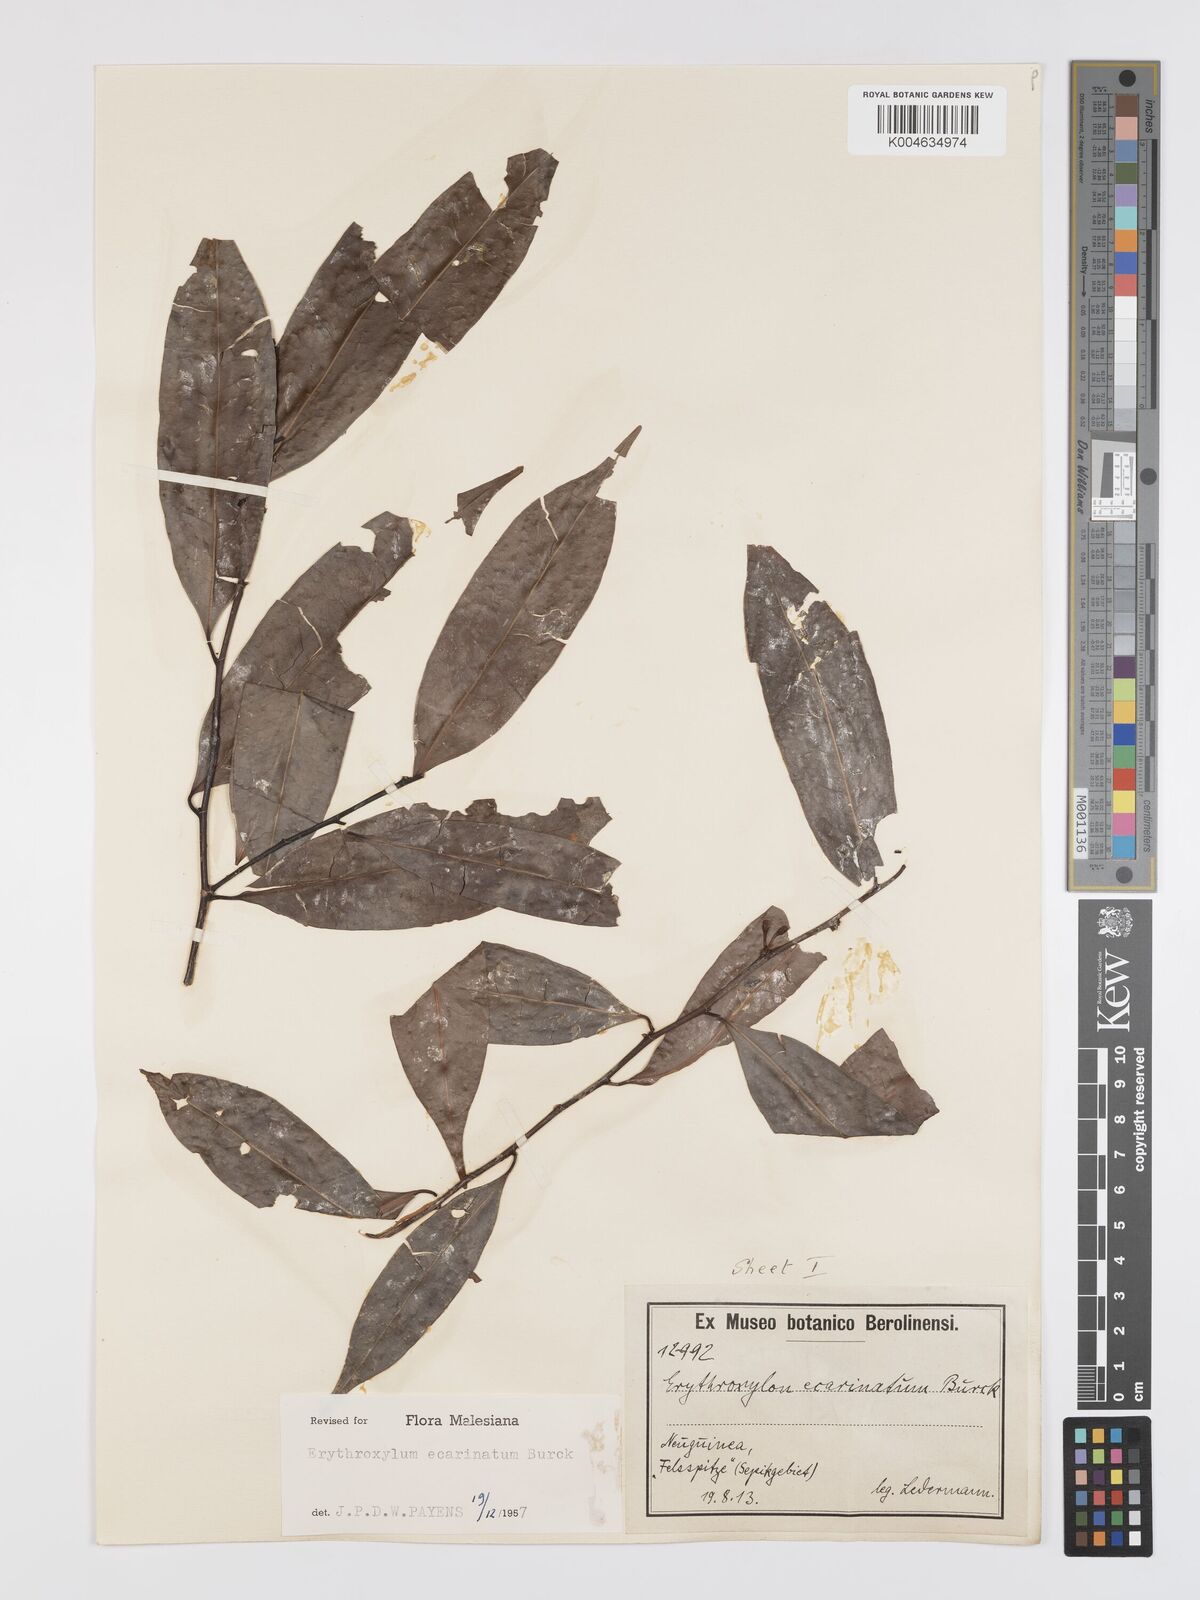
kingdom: Plantae
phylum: Tracheophyta
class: Magnoliopsida
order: Malpighiales
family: Erythroxylaceae
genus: Erythroxylum
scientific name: Erythroxylum ecarinatum
